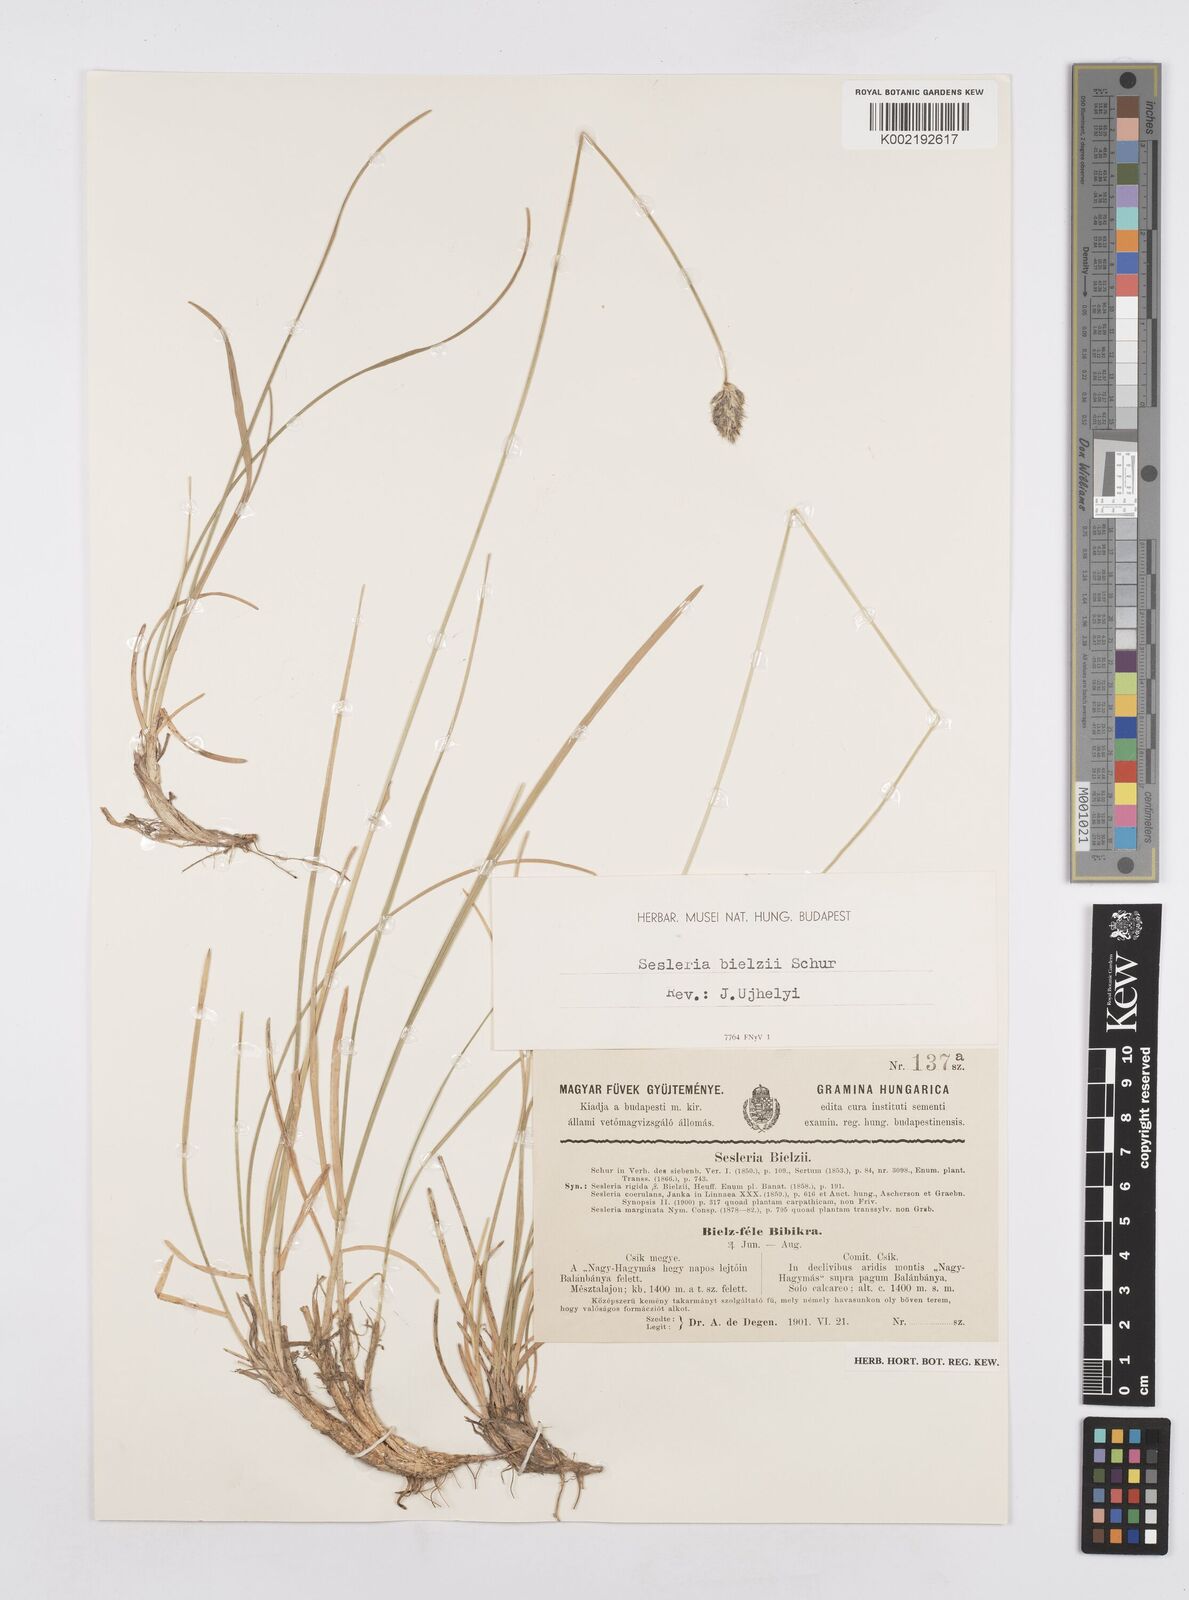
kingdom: Plantae
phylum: Tracheophyta
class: Liliopsida
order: Poales
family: Poaceae
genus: Sesleria
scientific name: Sesleria bielzii
